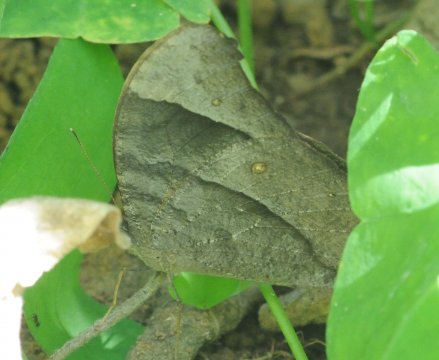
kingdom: Animalia
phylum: Arthropoda
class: Insecta
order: Lepidoptera
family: Nymphalidae
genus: Melanitis
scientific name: Melanitis leda
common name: Common Evening Brown
